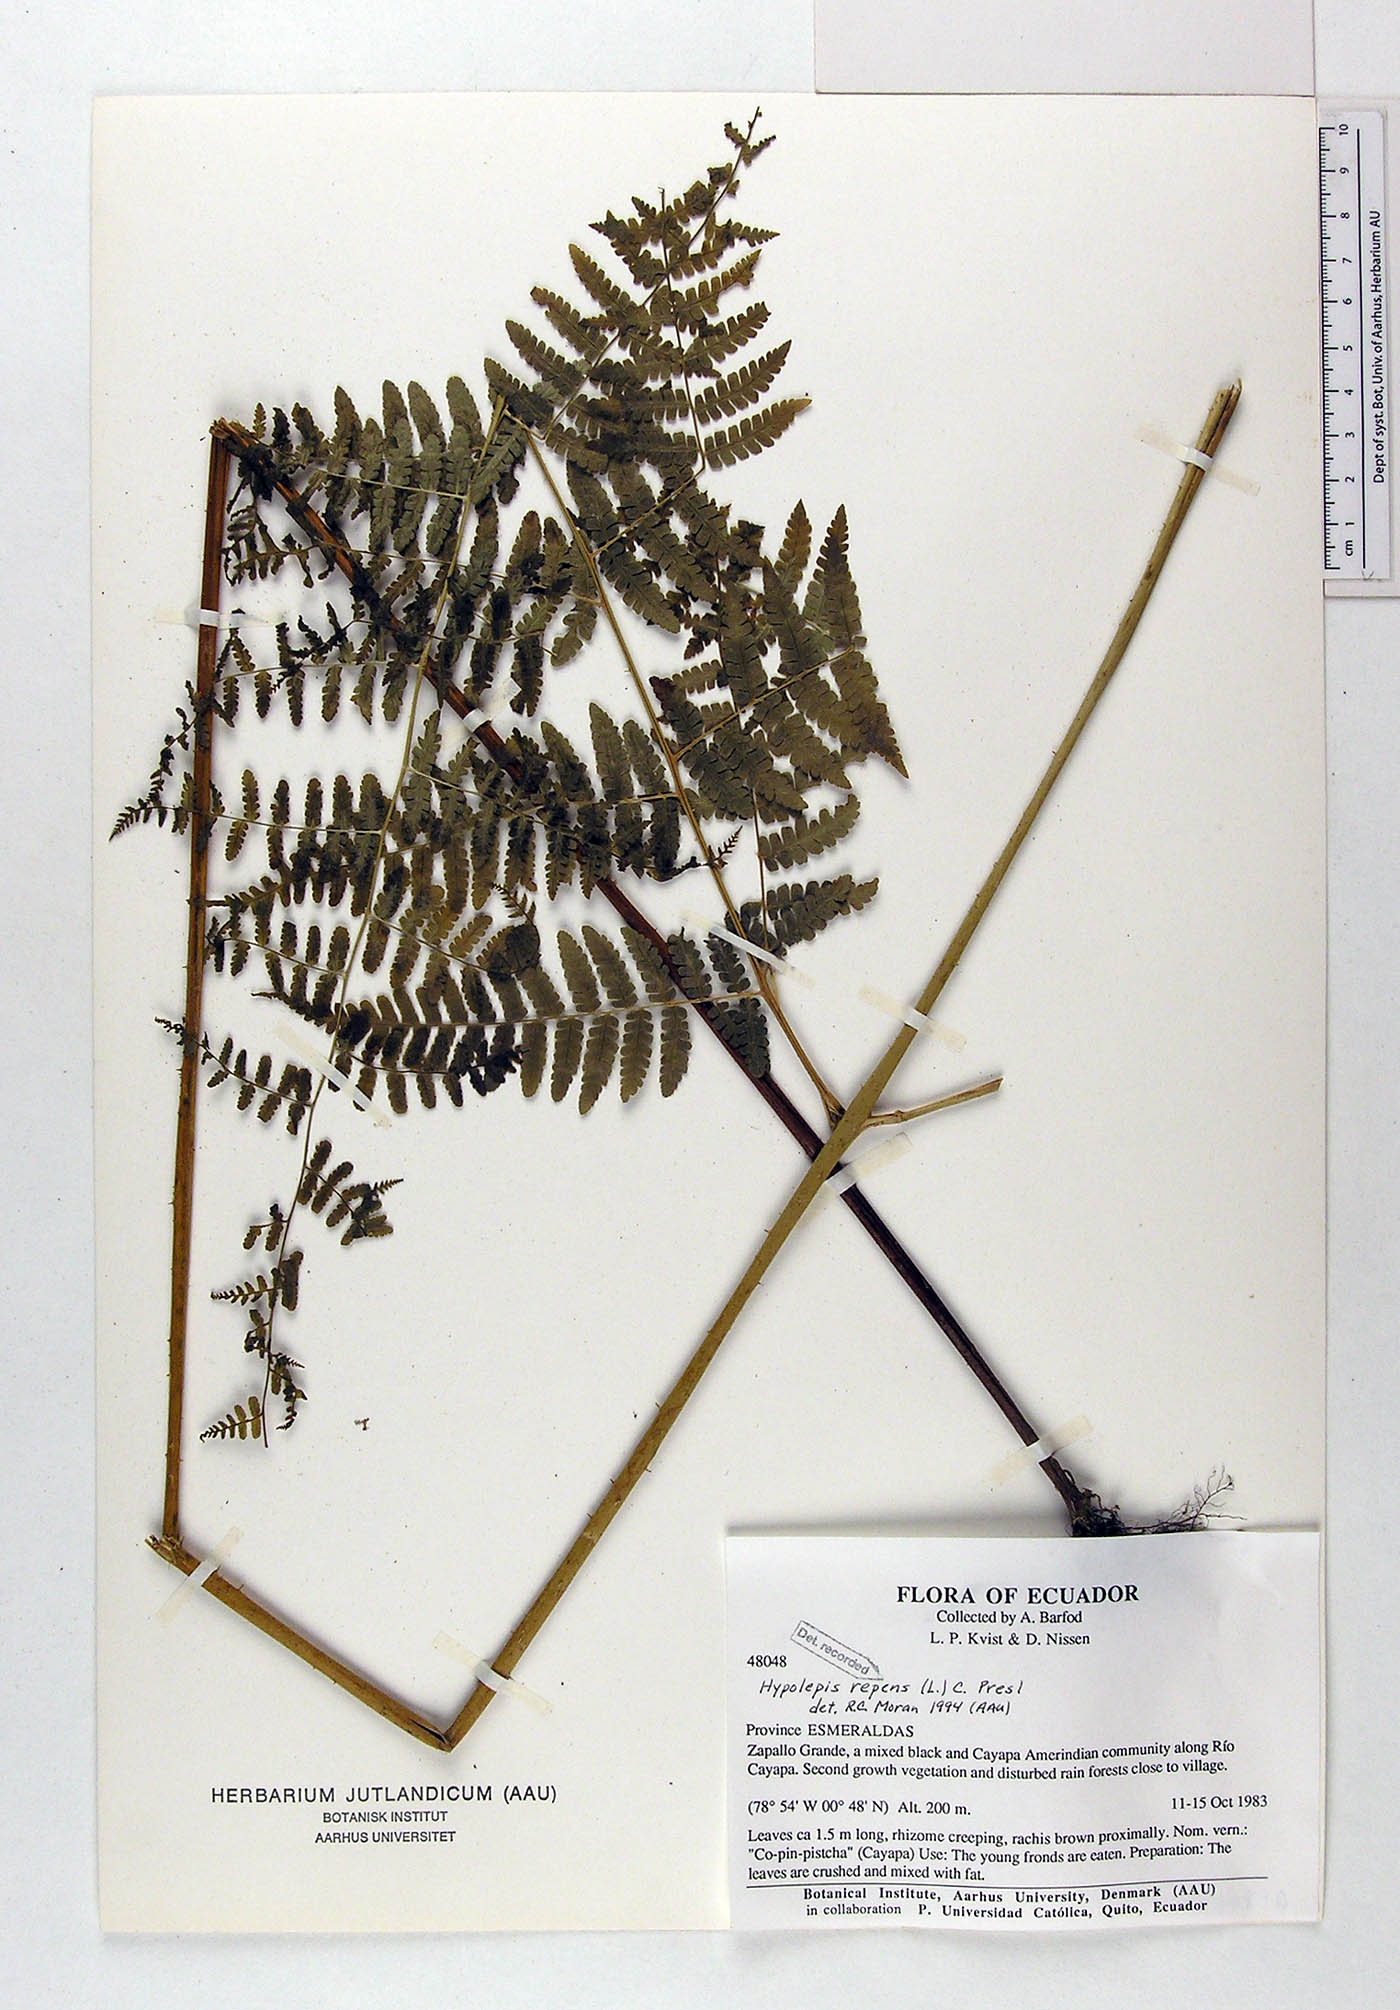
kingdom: Plantae
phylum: Tracheophyta
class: Polypodiopsida
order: Polypodiales
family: Dennstaedtiaceae
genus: Hypolepis
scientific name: Hypolepis repens
